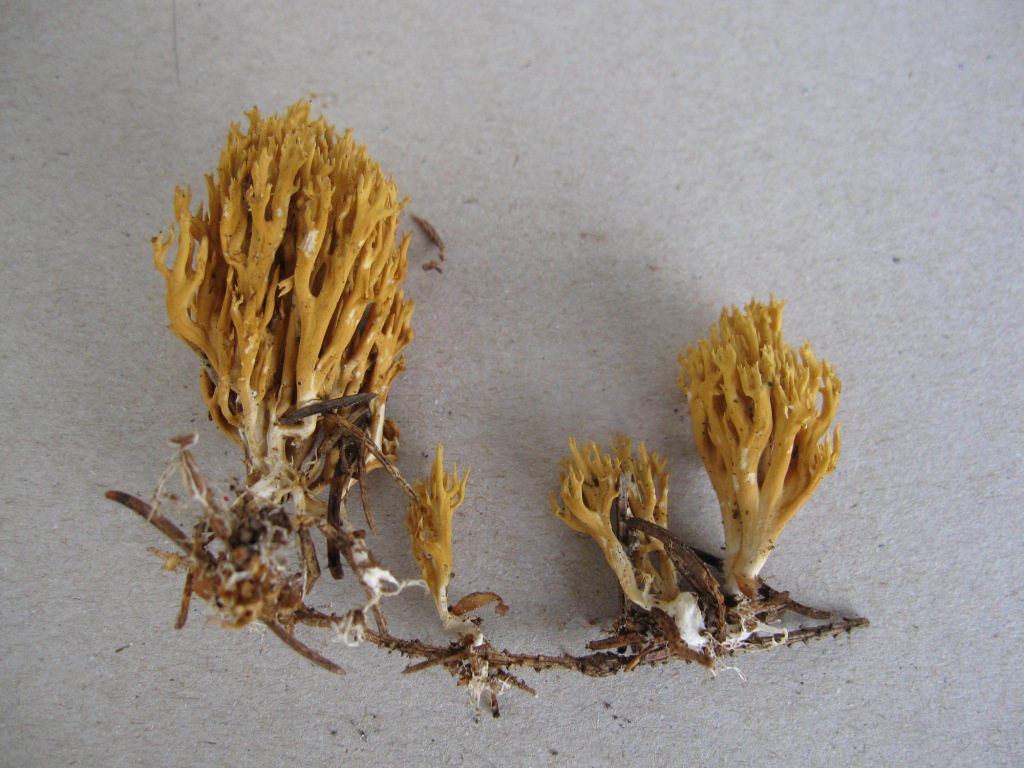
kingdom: Fungi
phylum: Basidiomycota
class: Agaricomycetes
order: Gomphales
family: Gomphaceae
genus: Phaeoclavulina
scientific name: Phaeoclavulina flaccida
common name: spinkel koralsvamp
